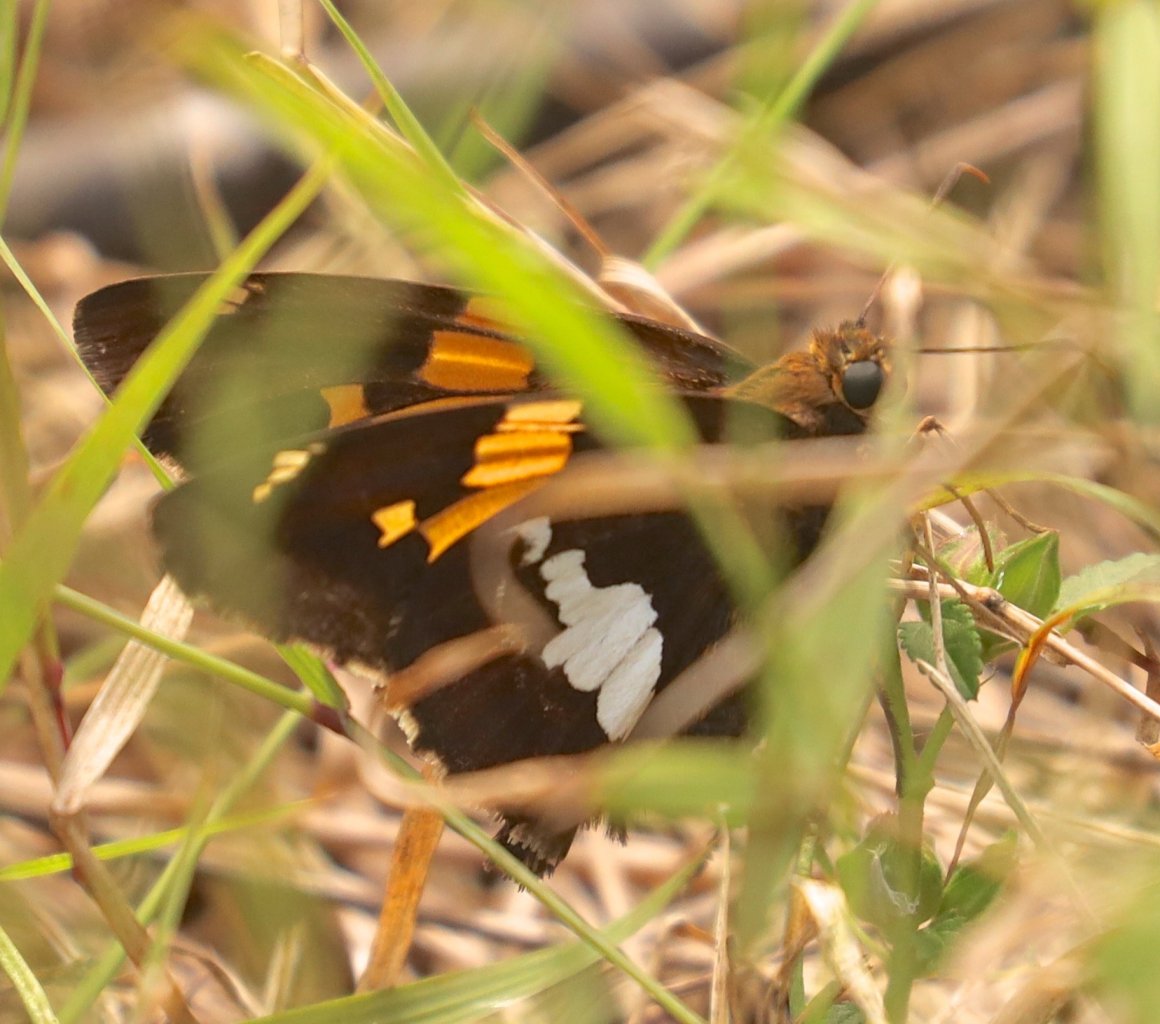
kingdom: Animalia
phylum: Arthropoda
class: Insecta
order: Lepidoptera
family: Hesperiidae
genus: Epargyreus
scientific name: Epargyreus clarus
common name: Silver-spotted Skipper
